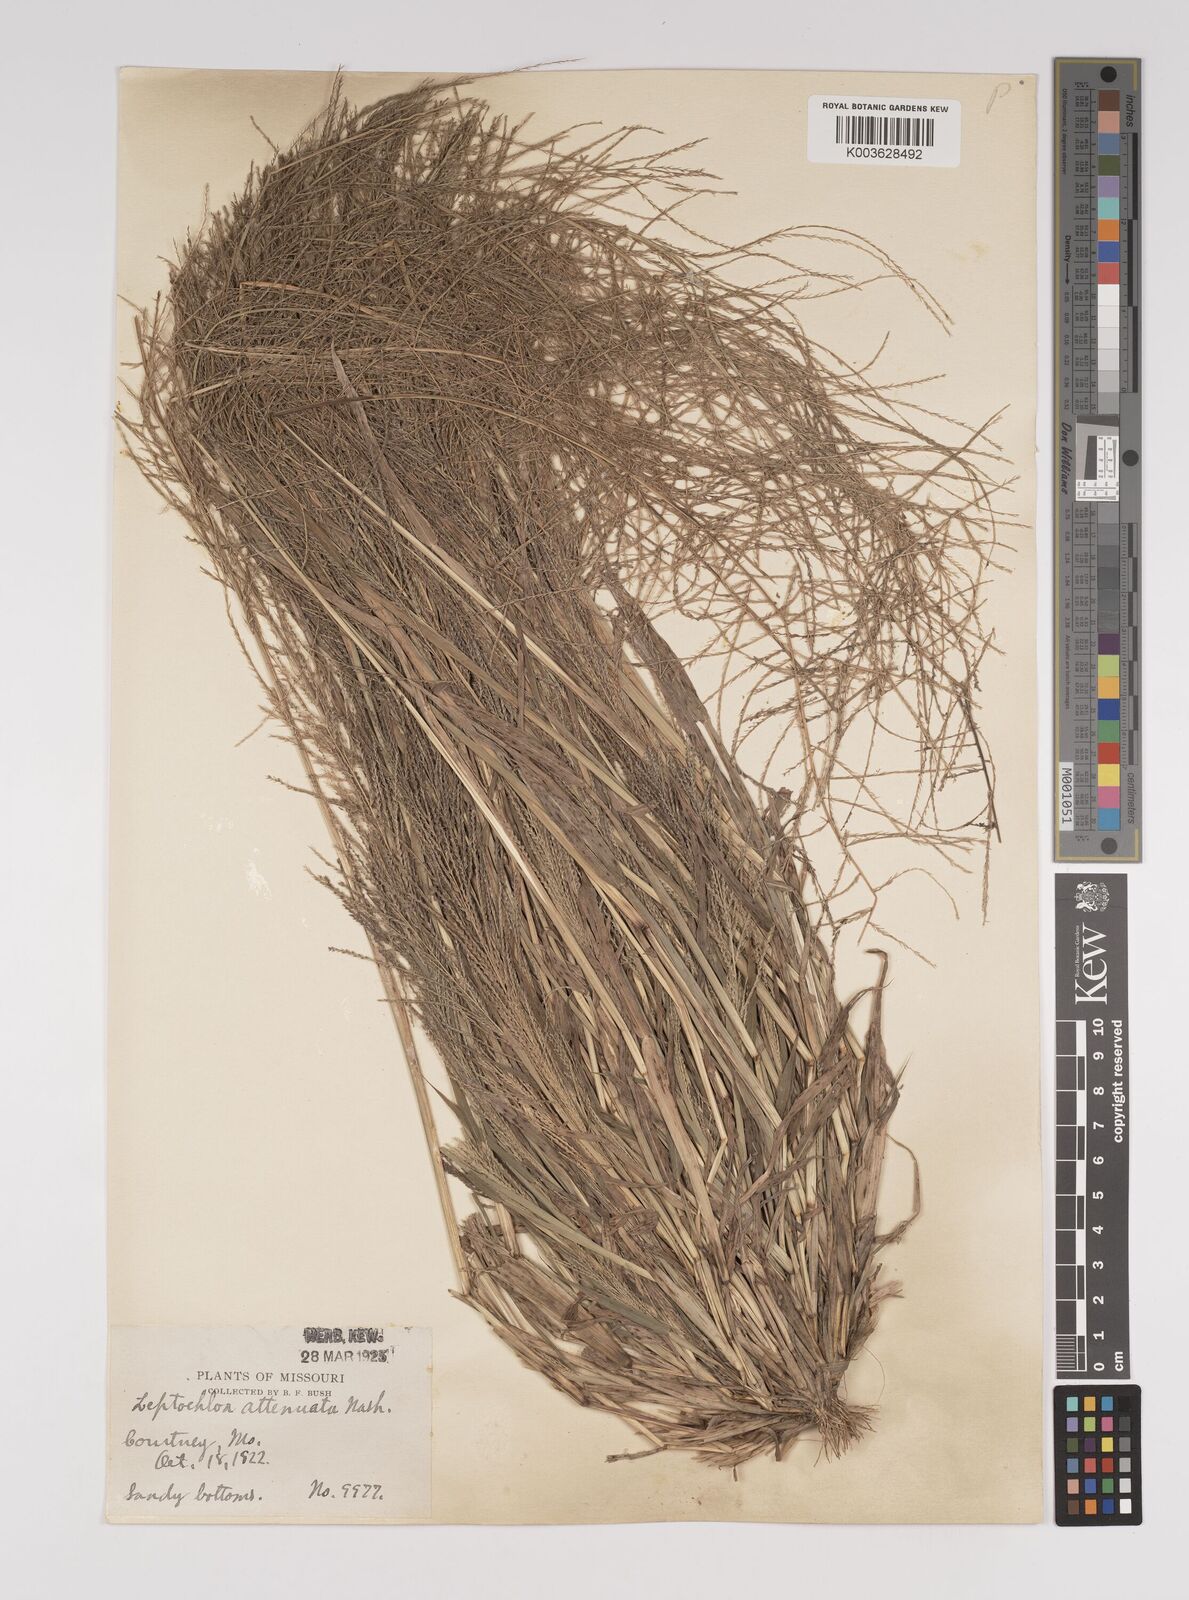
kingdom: Plantae
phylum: Tracheophyta
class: Liliopsida
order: Poales
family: Poaceae
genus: Leptochloa
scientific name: Leptochloa panicea
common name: Mucronate sprangletop
